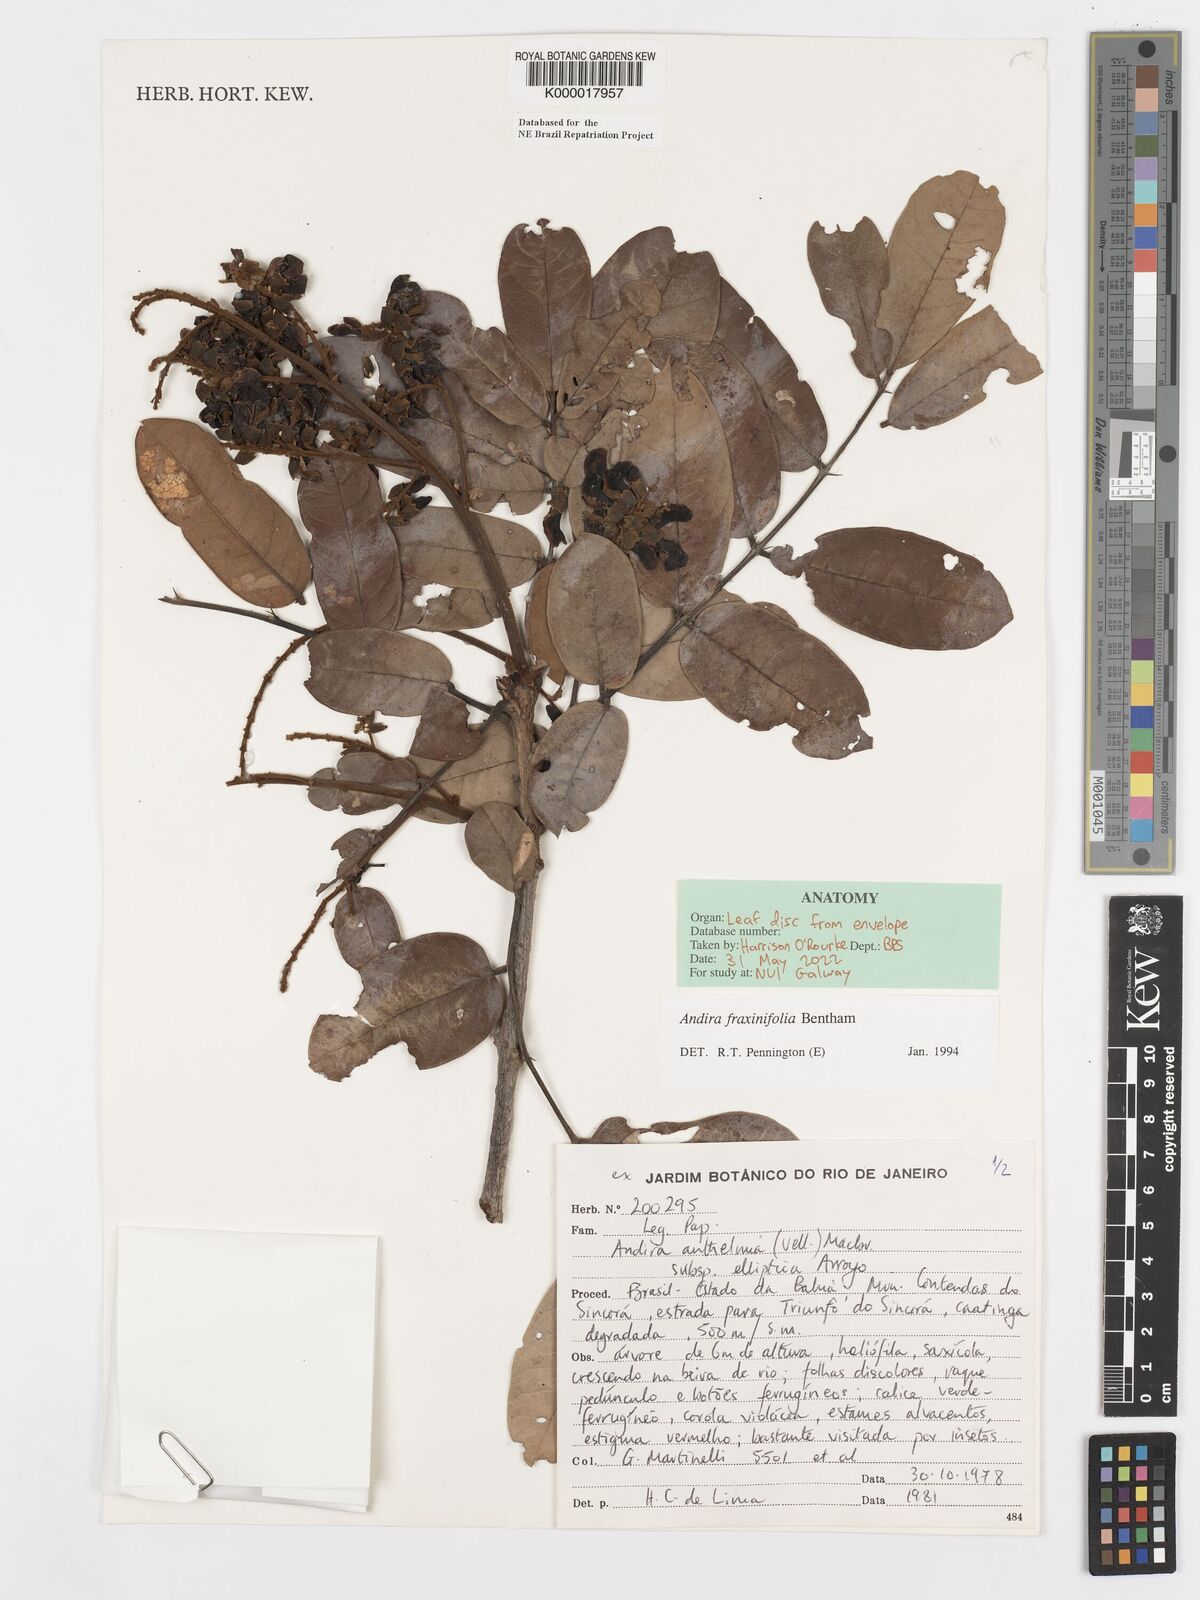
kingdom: Plantae
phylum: Tracheophyta
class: Magnoliopsida
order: Fabales
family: Fabaceae
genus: Andira
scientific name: Andira fraxinifolia
